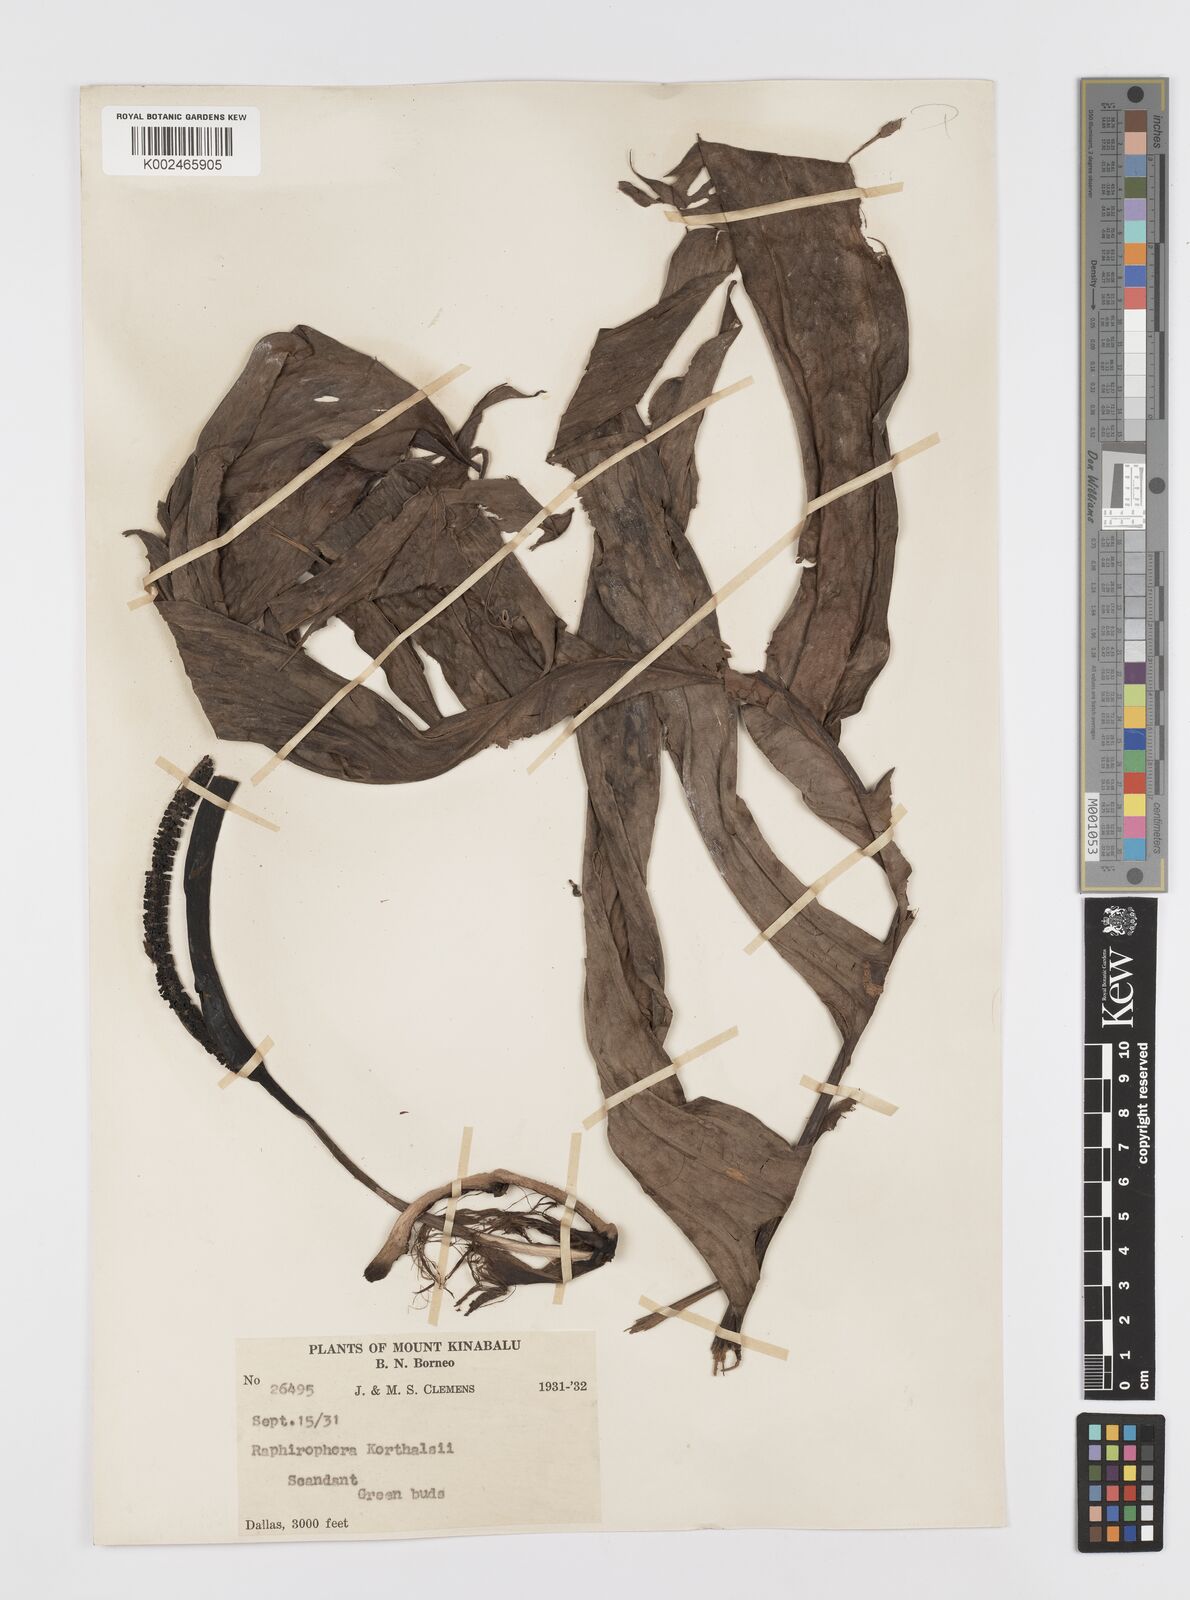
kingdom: Plantae
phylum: Tracheophyta
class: Liliopsida
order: Alismatales
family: Araceae
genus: Rhaphidophora
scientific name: Rhaphidophora korthalsii
